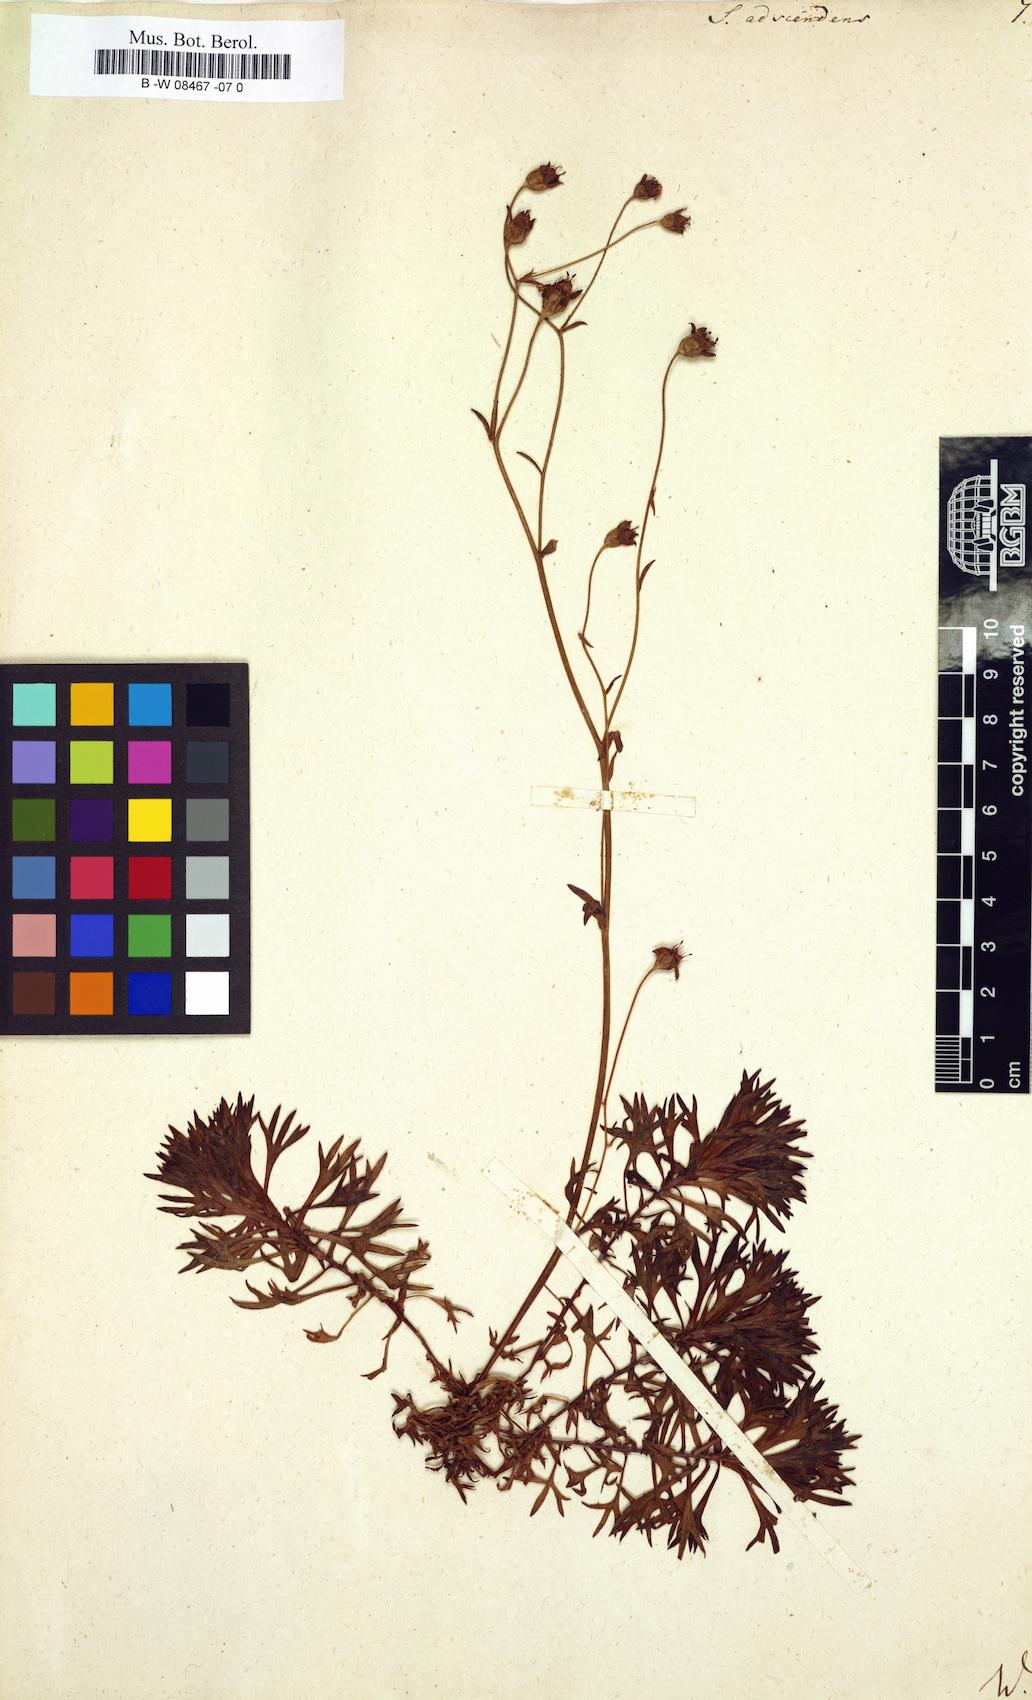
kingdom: Plantae
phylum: Tracheophyta
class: Magnoliopsida
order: Saxifragales
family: Saxifragaceae
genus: Saxifraga
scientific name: Saxifraga adscendens
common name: Ascending saxifrage
